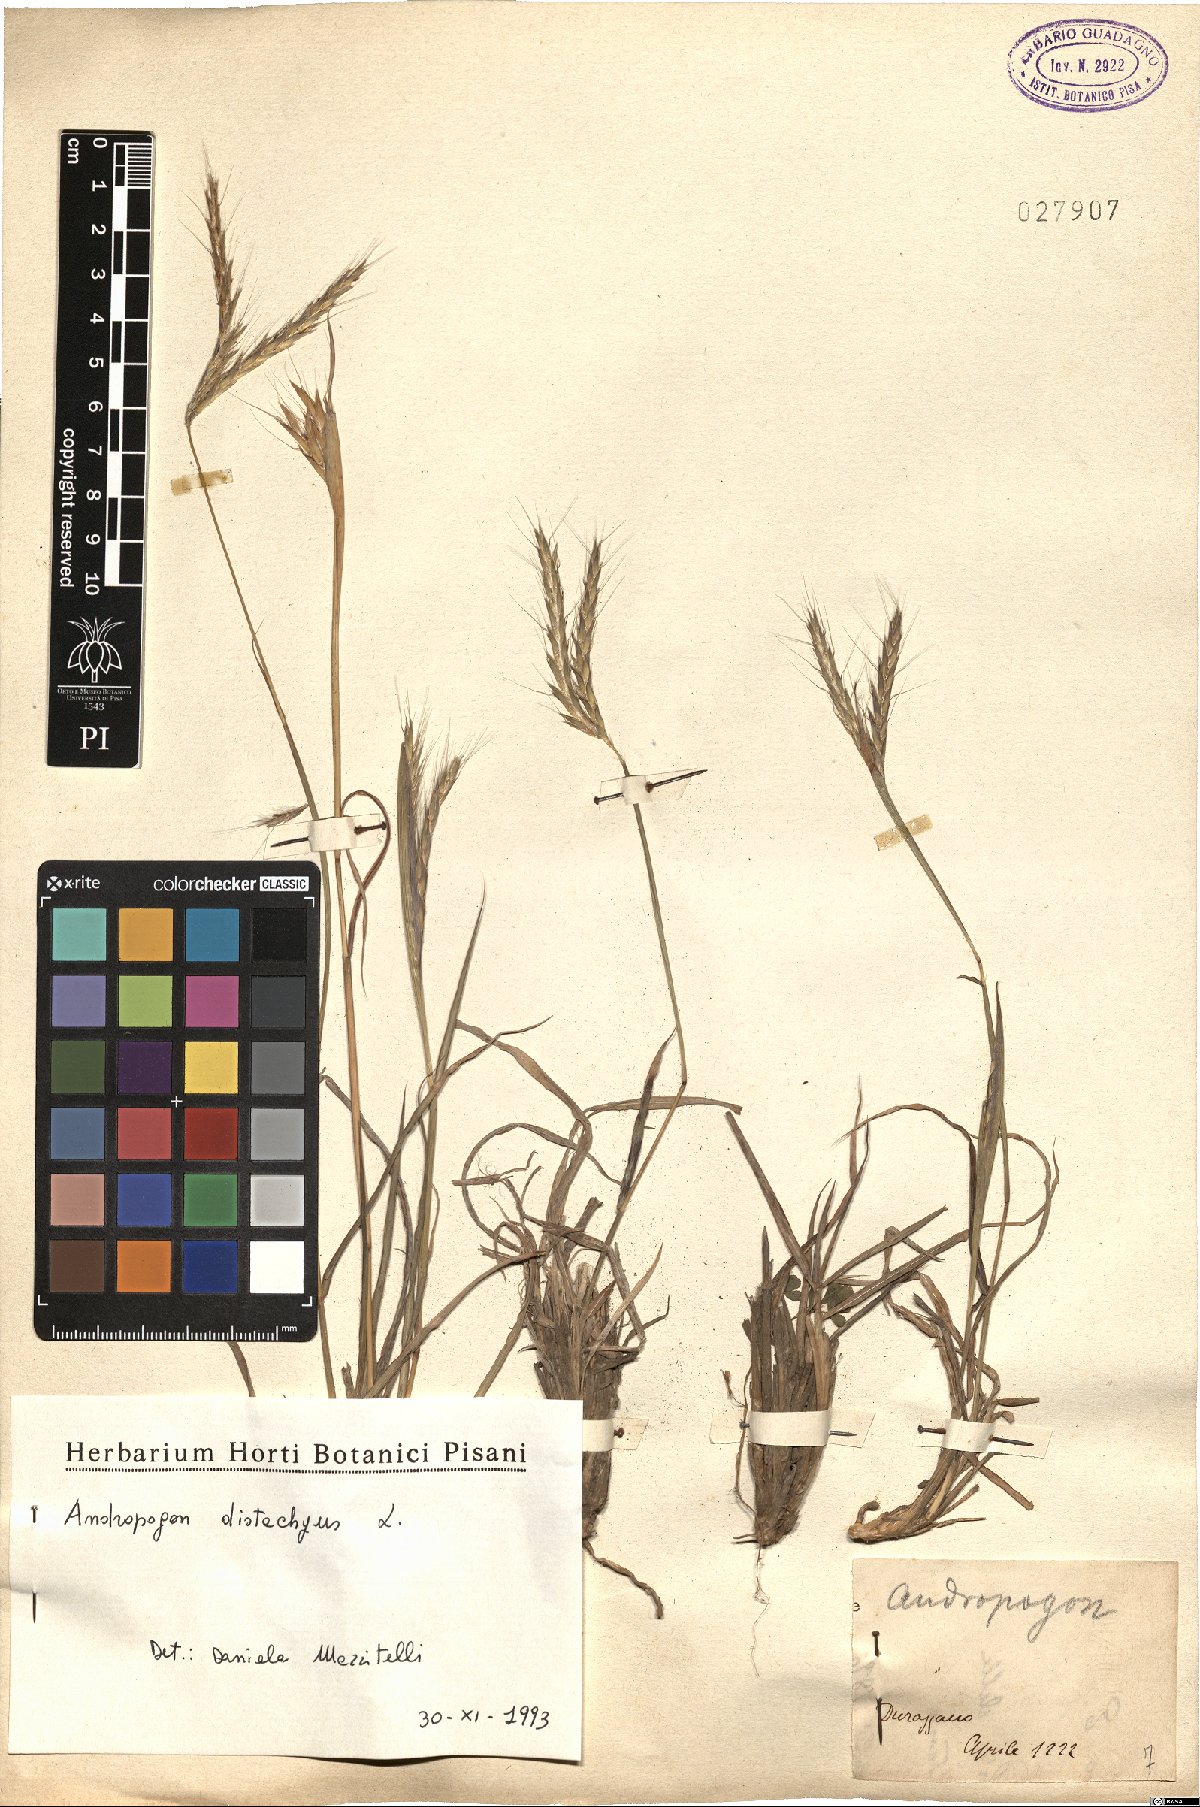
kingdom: Plantae
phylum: Tracheophyta
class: Liliopsida
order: Poales
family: Poaceae
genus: Andropogon
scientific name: Andropogon distachyos
